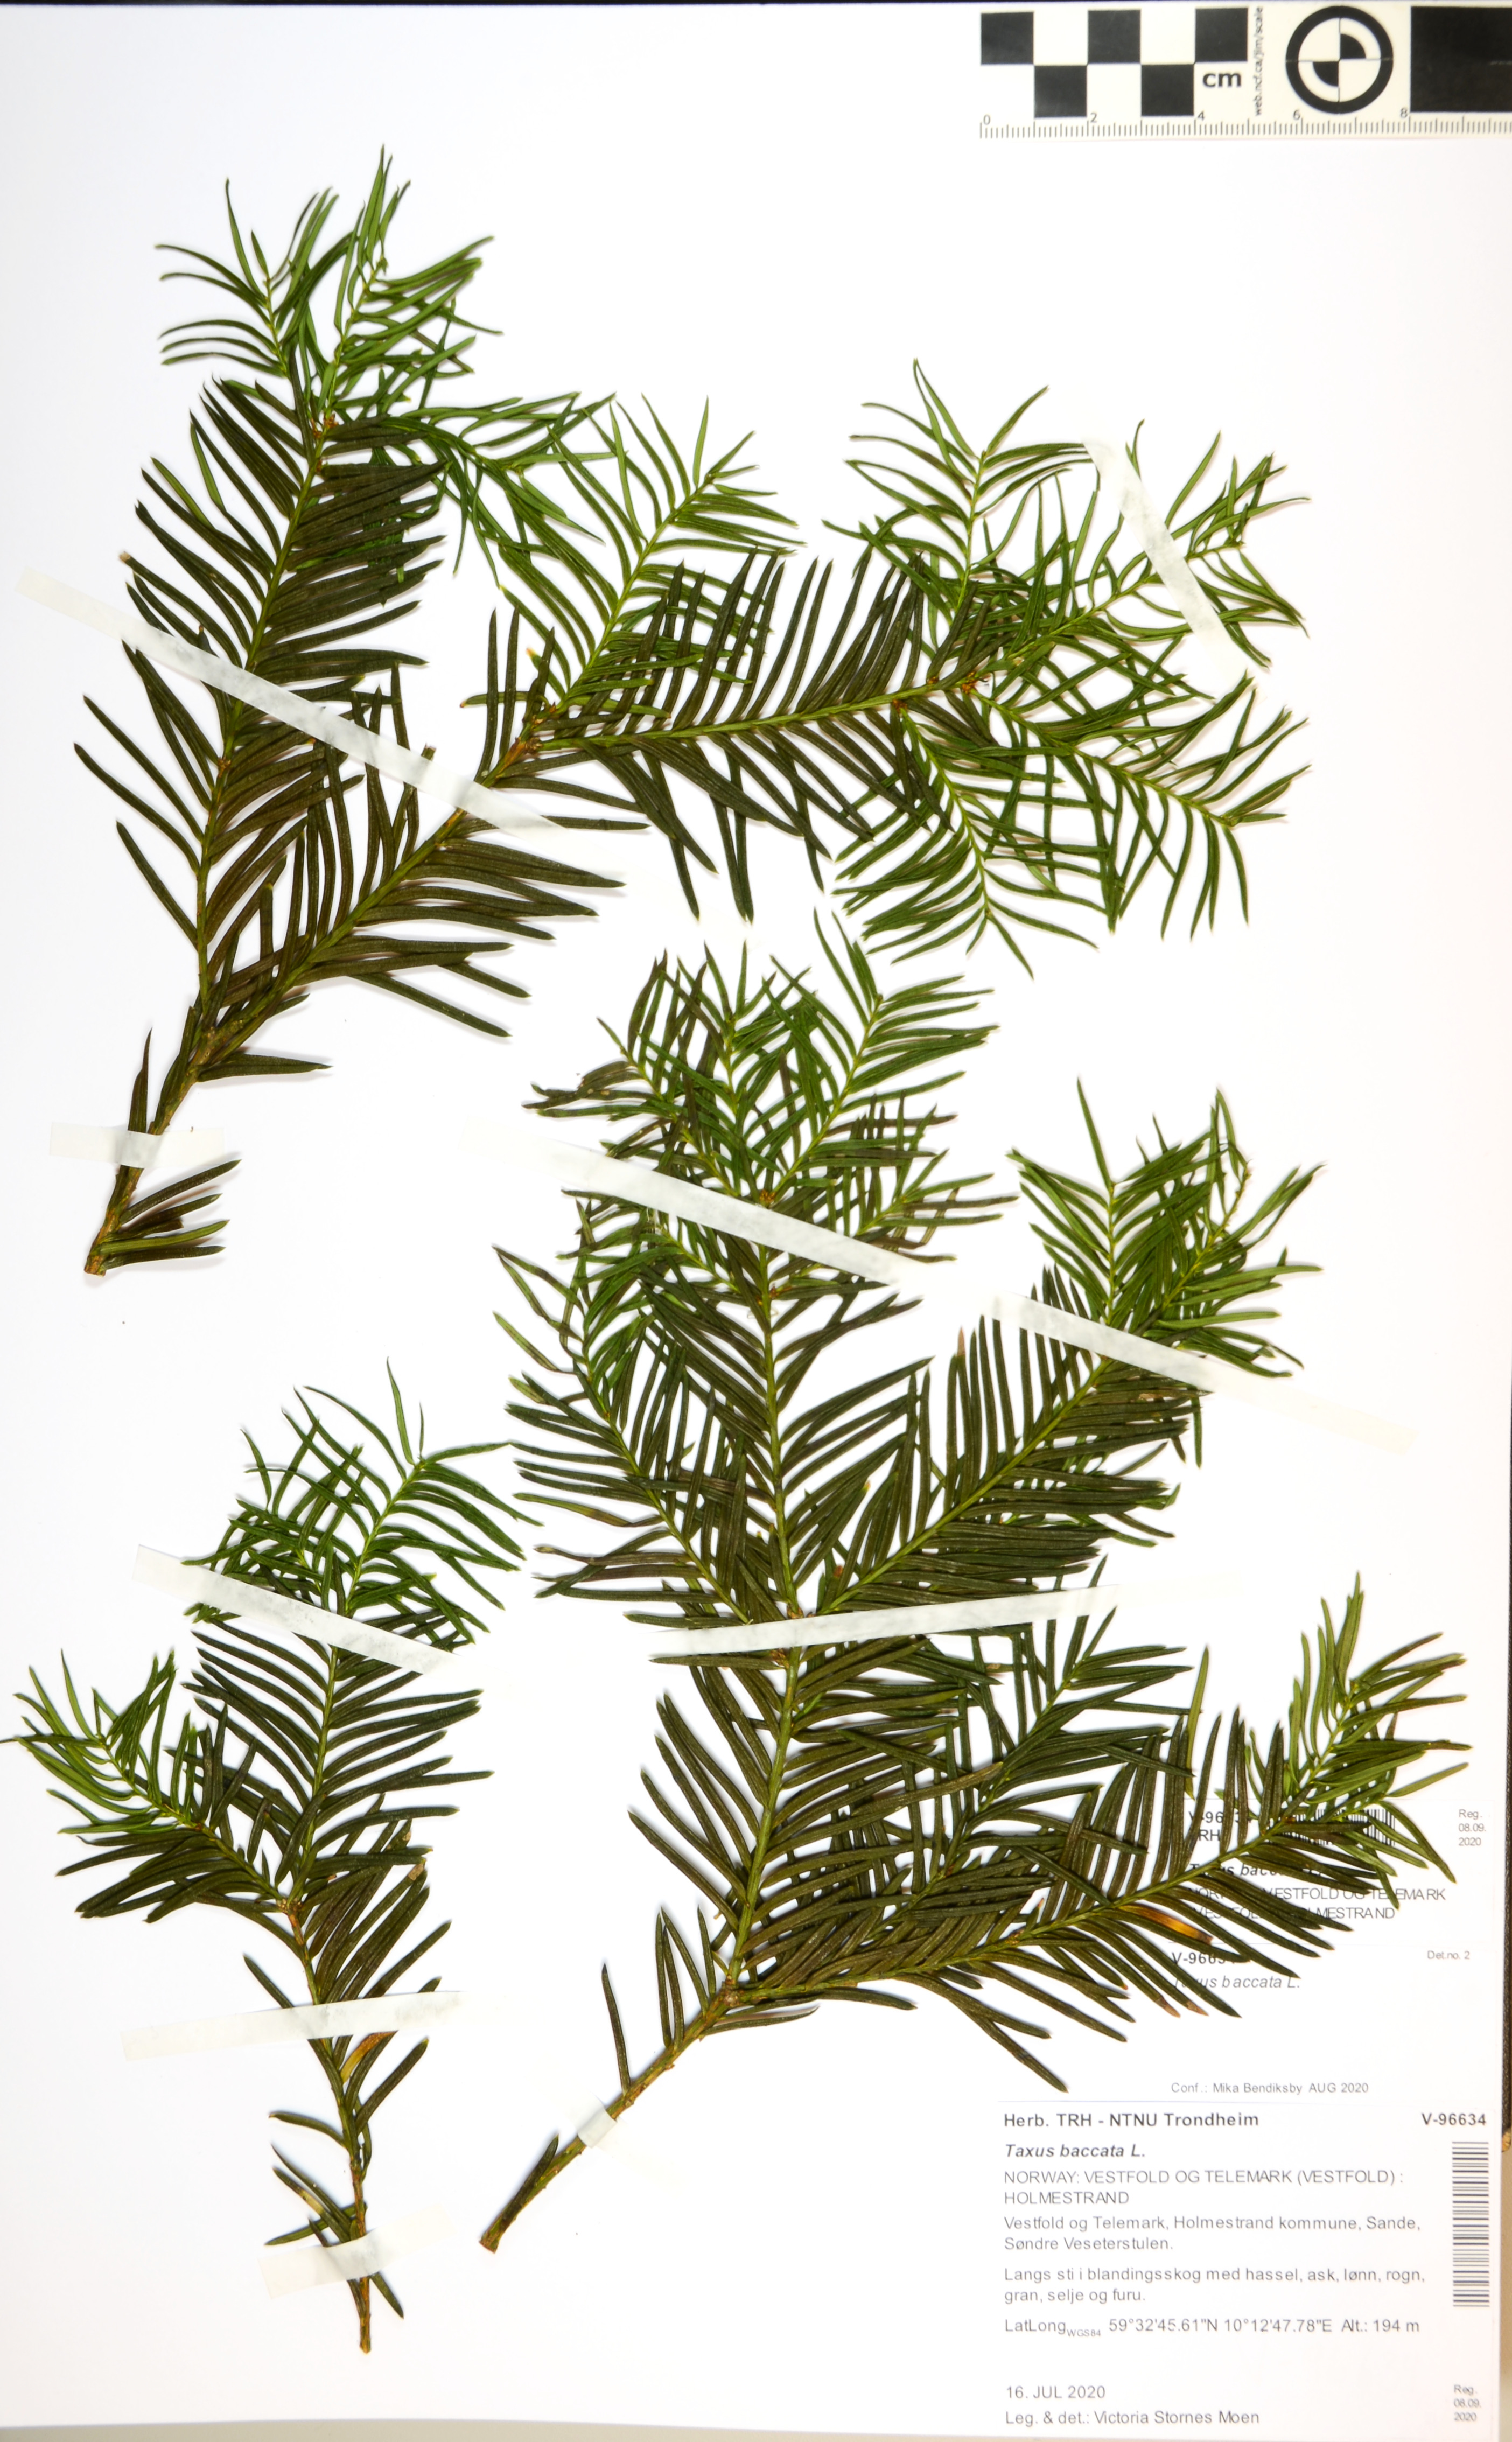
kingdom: Plantae
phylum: Tracheophyta
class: Pinopsida
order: Pinales
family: Taxaceae
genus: Taxus
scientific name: Taxus baccata
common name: Yew
